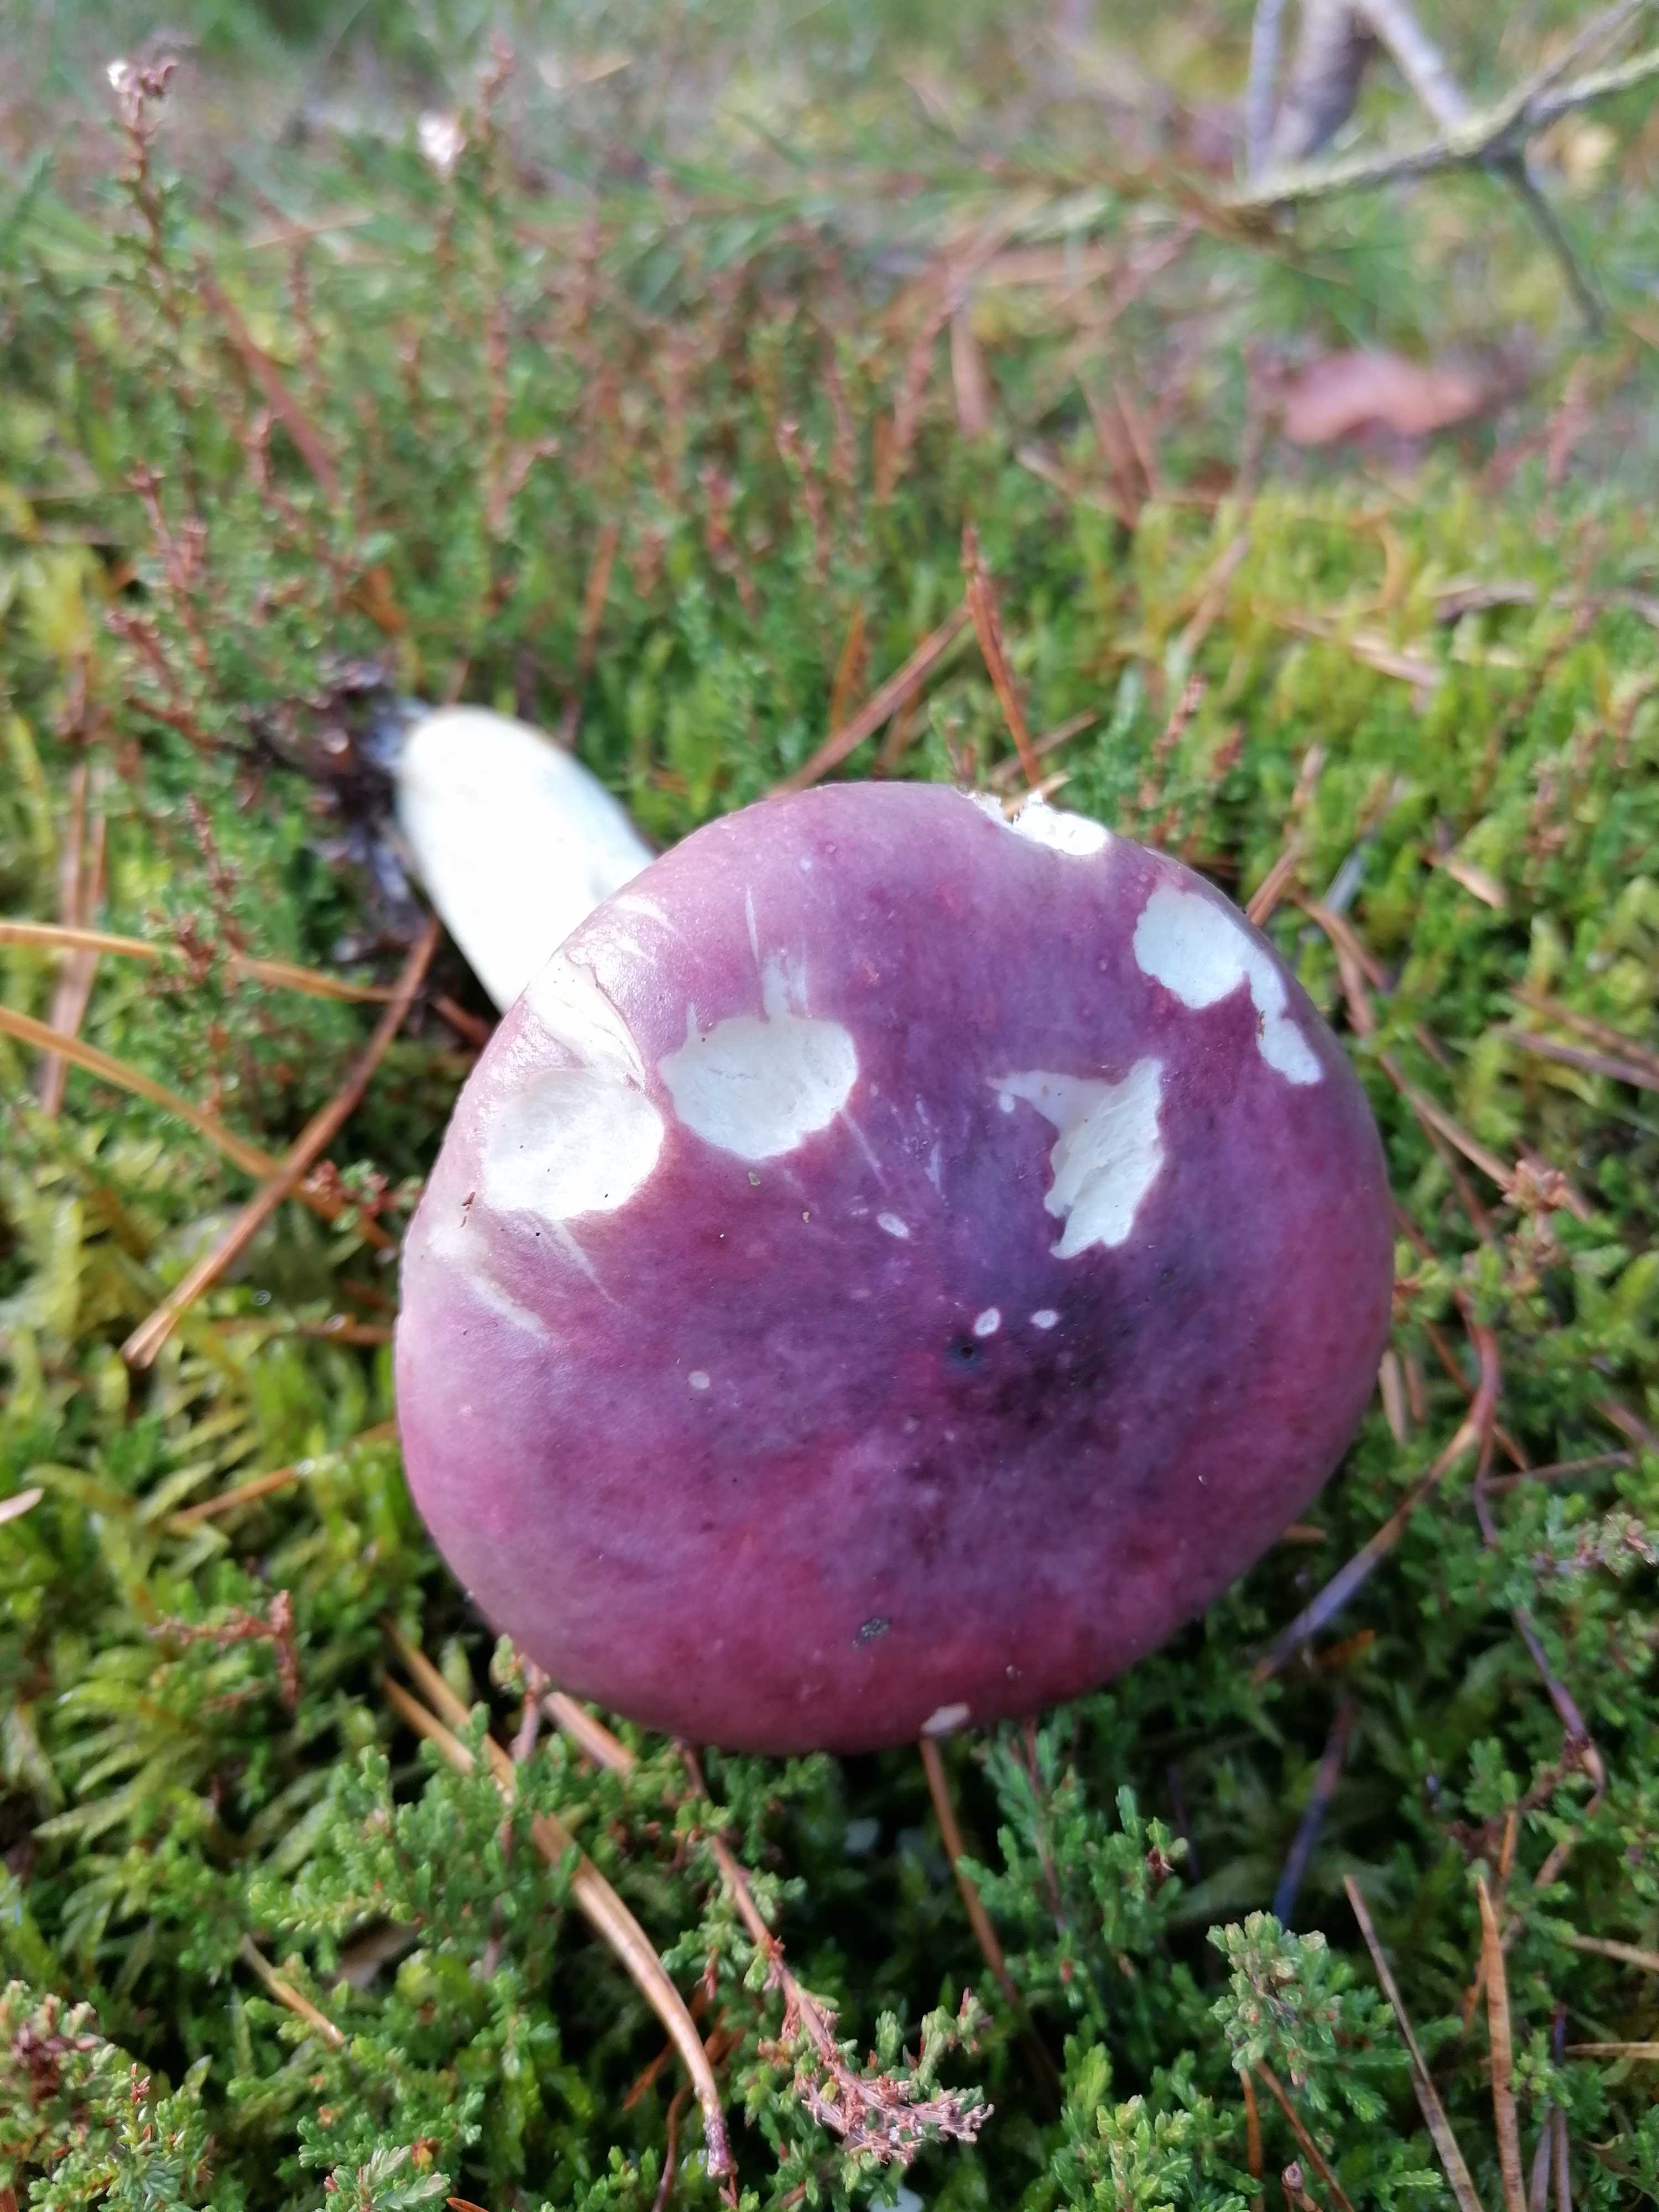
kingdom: Fungi
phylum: Basidiomycota
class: Agaricomycetes
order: Russulales
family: Russulaceae
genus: Russula
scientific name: Russula fragilis
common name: savbladet skørhat
